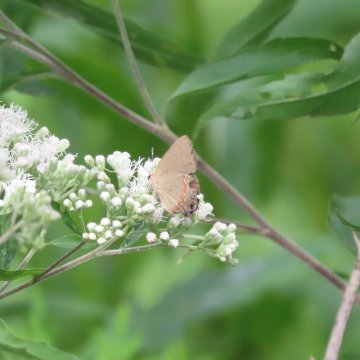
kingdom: Animalia
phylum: Arthropoda
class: Insecta
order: Lepidoptera
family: Lycaenidae
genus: Calycopis
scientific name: Calycopis cecrops
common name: Red-banded Hairstreak
